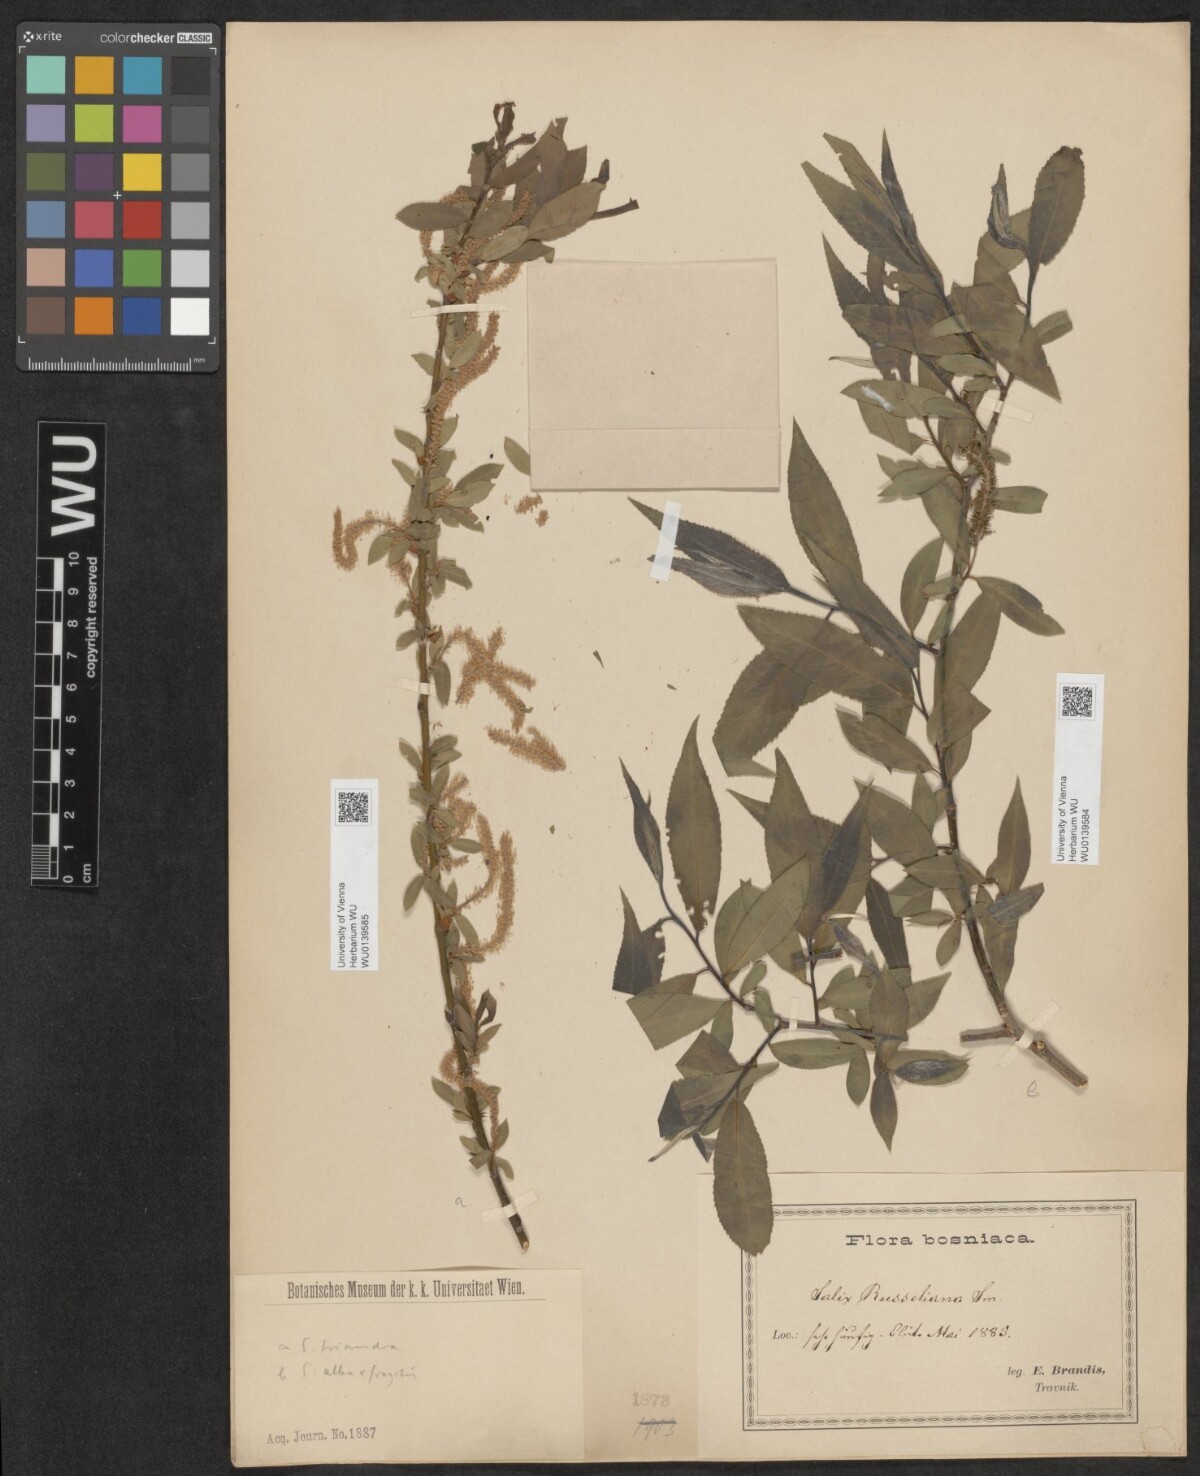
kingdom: Plantae
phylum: Tracheophyta
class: Magnoliopsida
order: Malpighiales
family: Salicaceae
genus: Salix
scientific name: Salix rubens
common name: Hybrid crack willow
